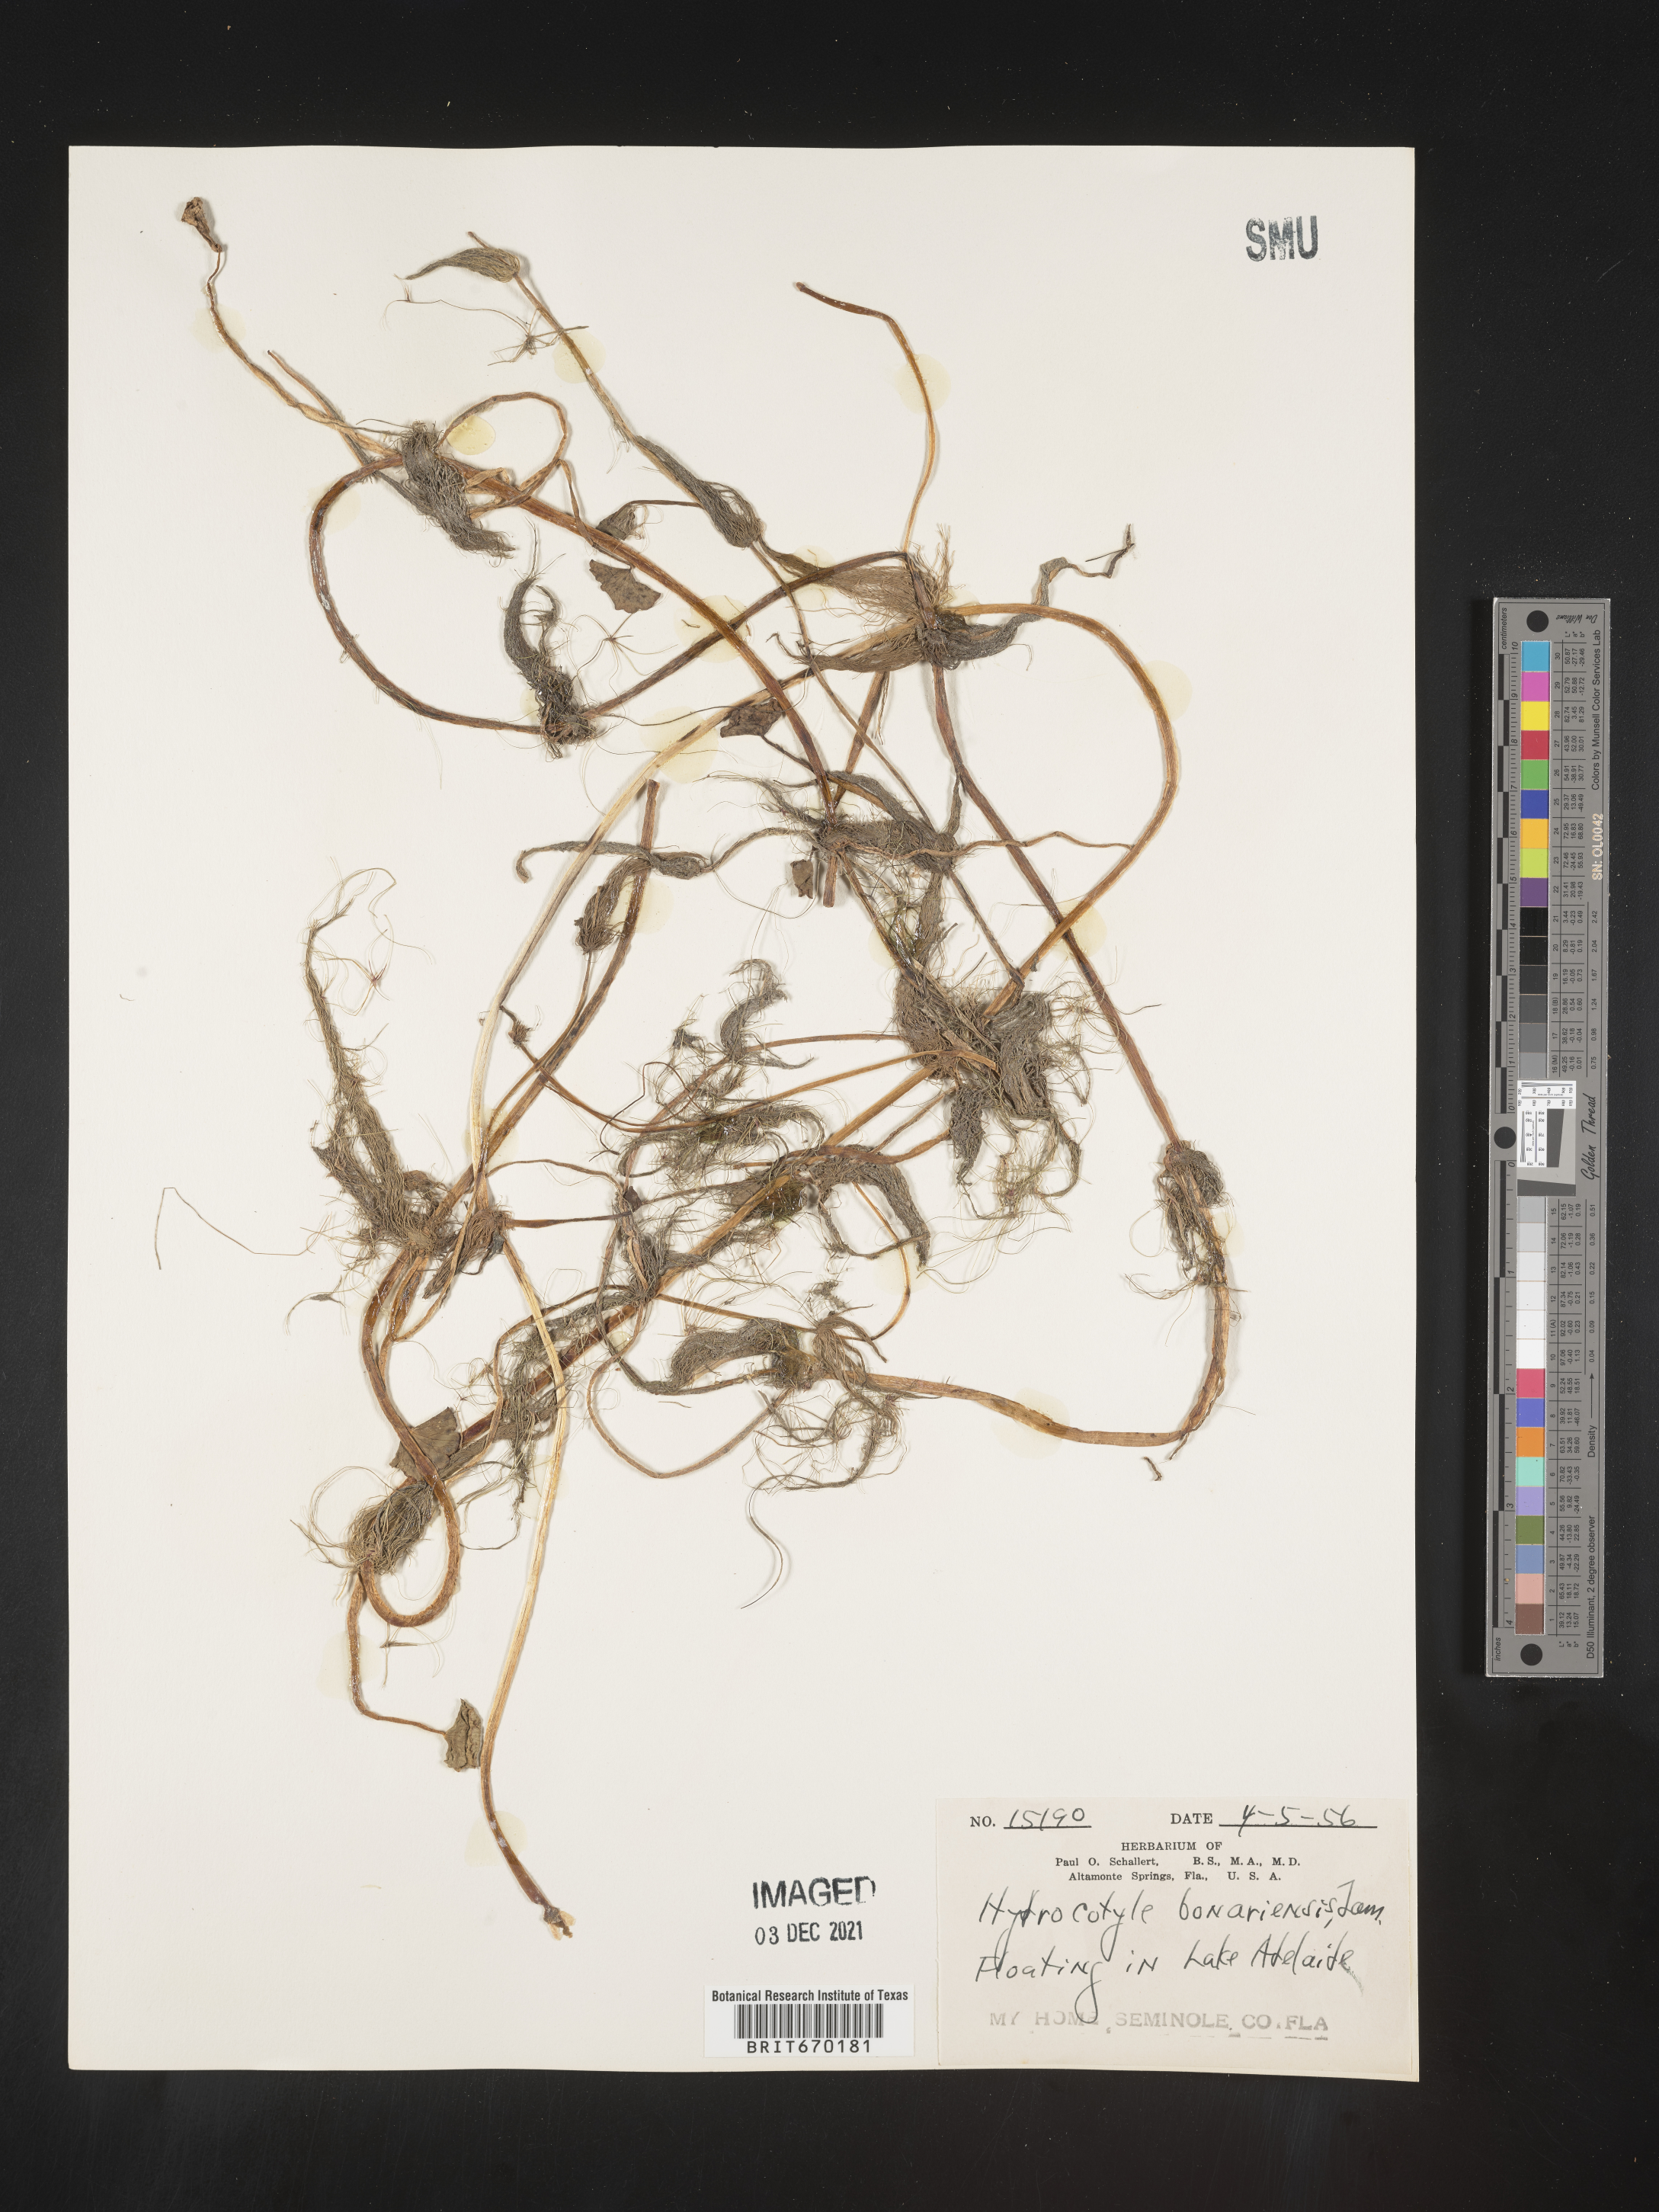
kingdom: Plantae
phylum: Tracheophyta
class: Magnoliopsida
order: Apiales
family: Araliaceae
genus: Hydrocotyle
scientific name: Hydrocotyle bonariensis
